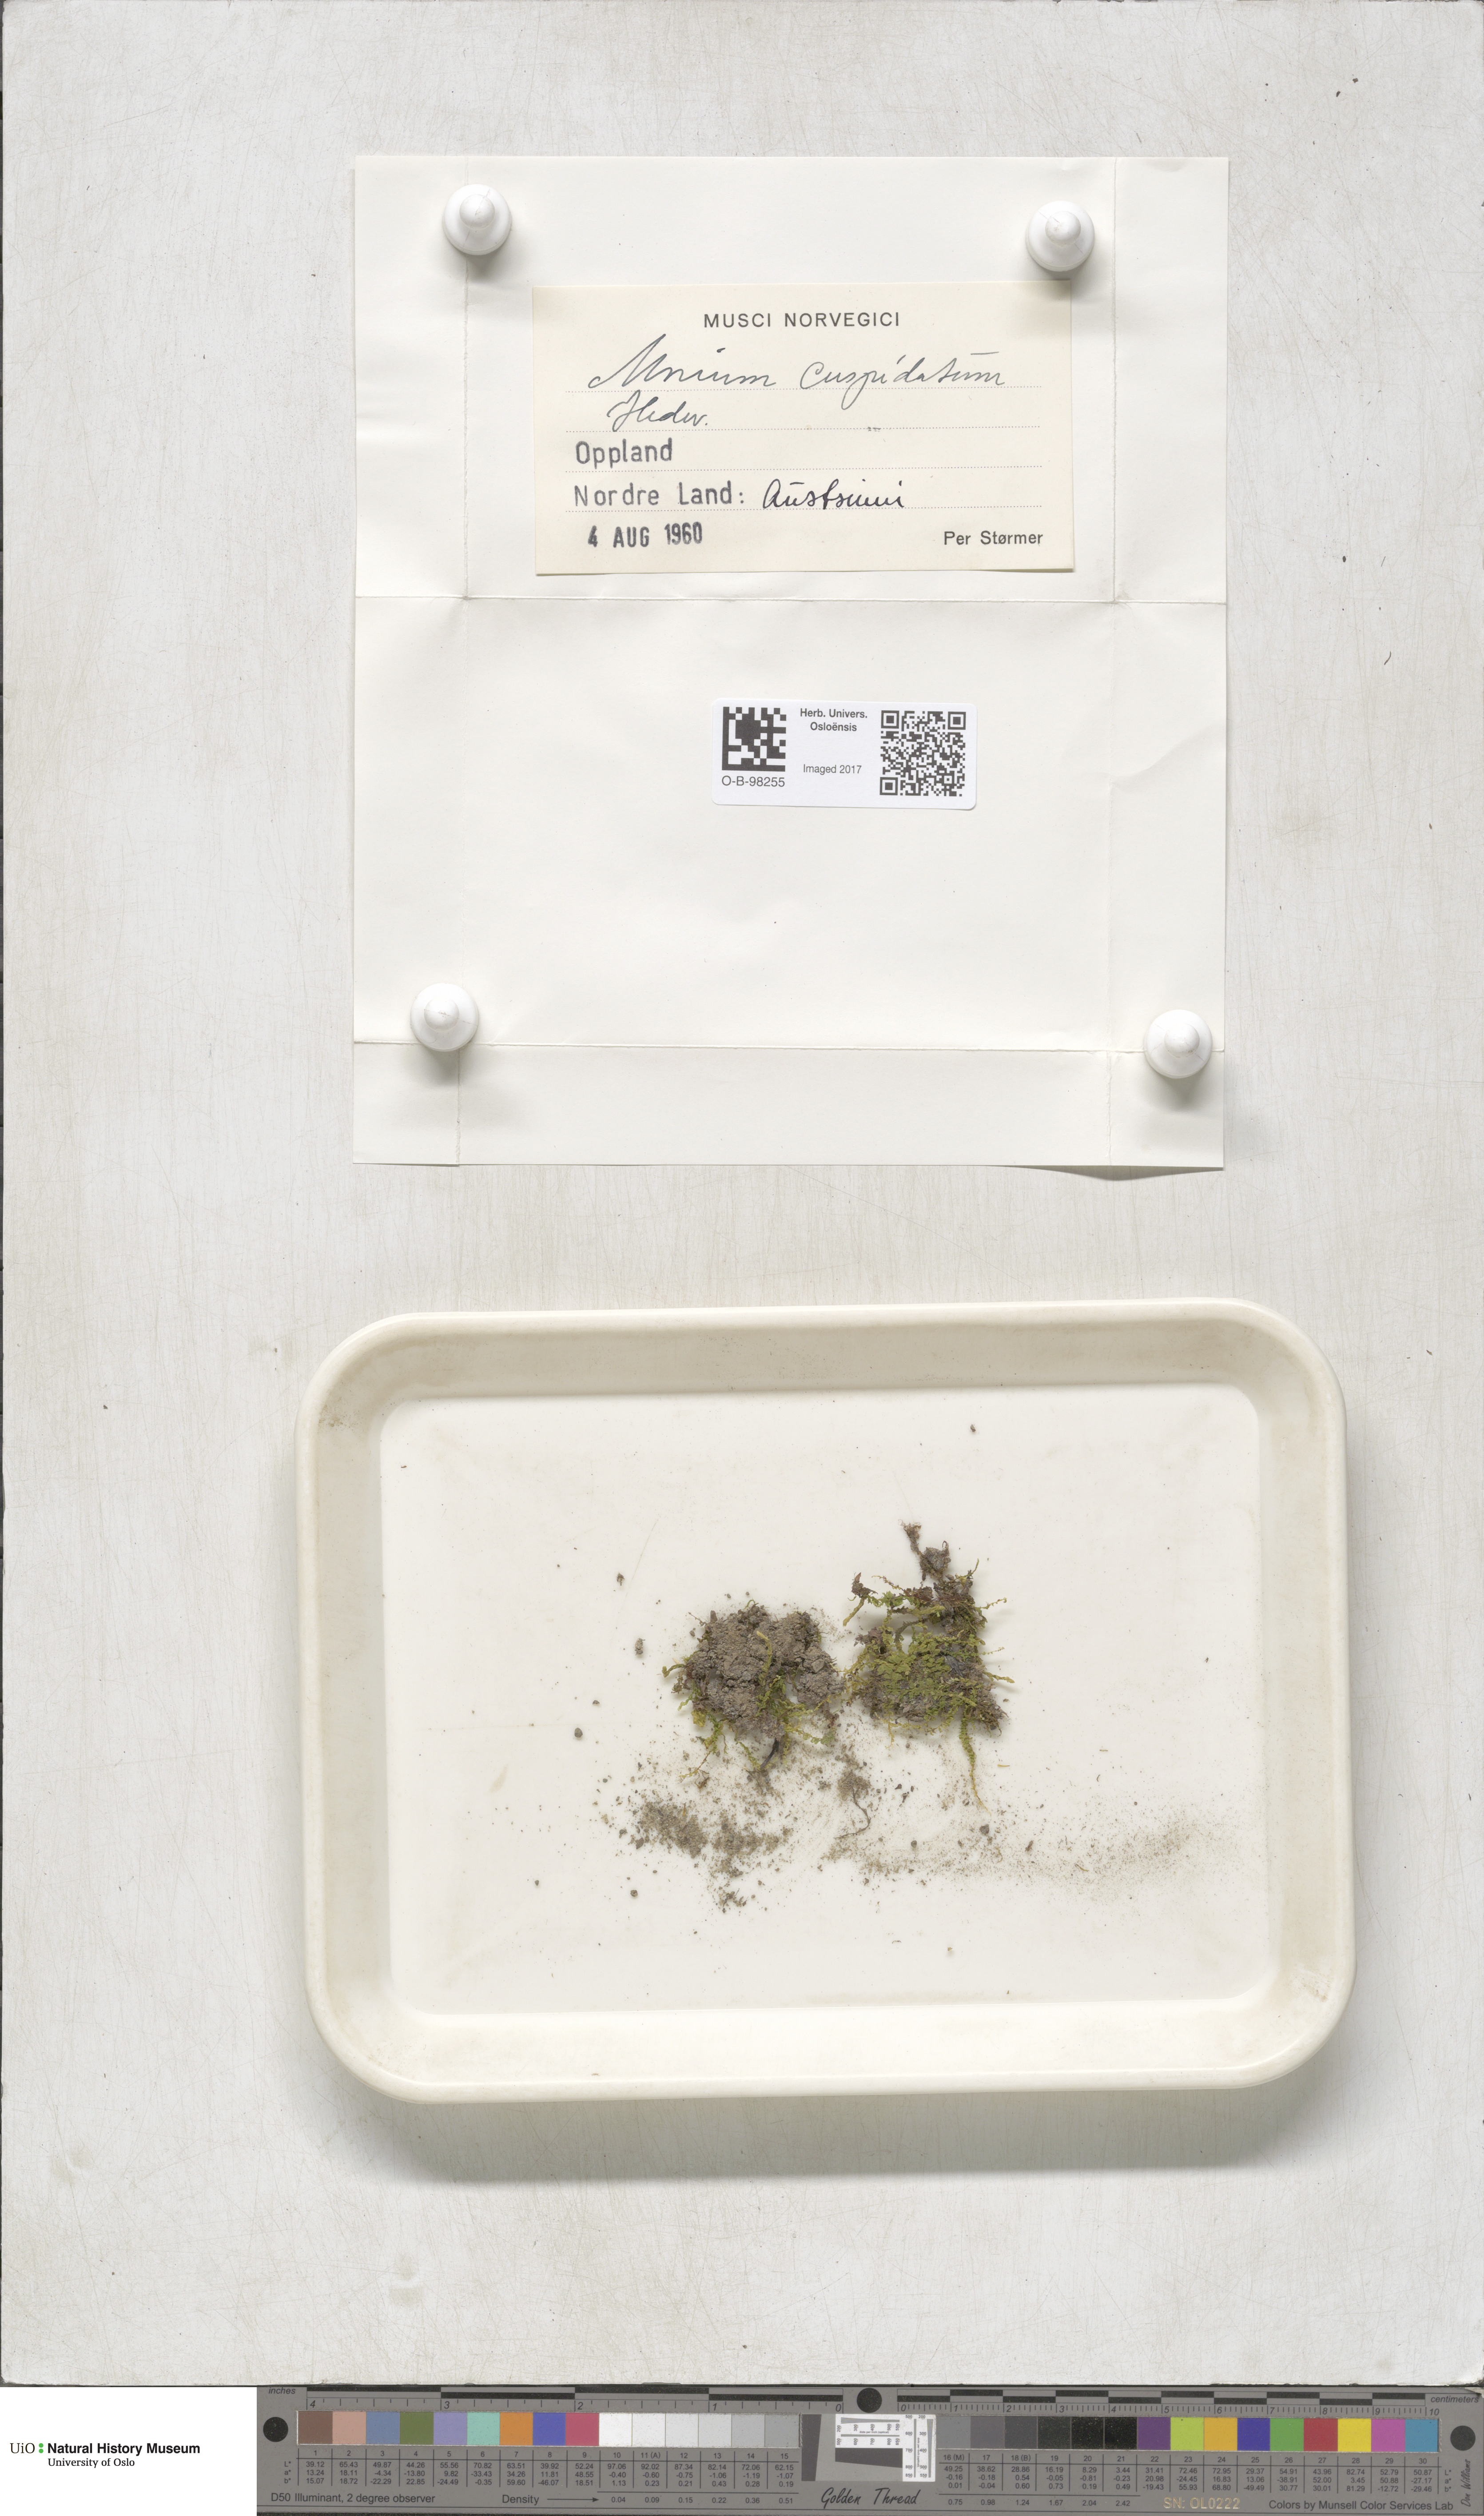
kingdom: Plantae
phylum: Bryophyta
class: Bryopsida
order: Bryales
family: Mniaceae
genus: Plagiomnium
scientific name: Plagiomnium affine
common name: Many-fruited thyme-moss
